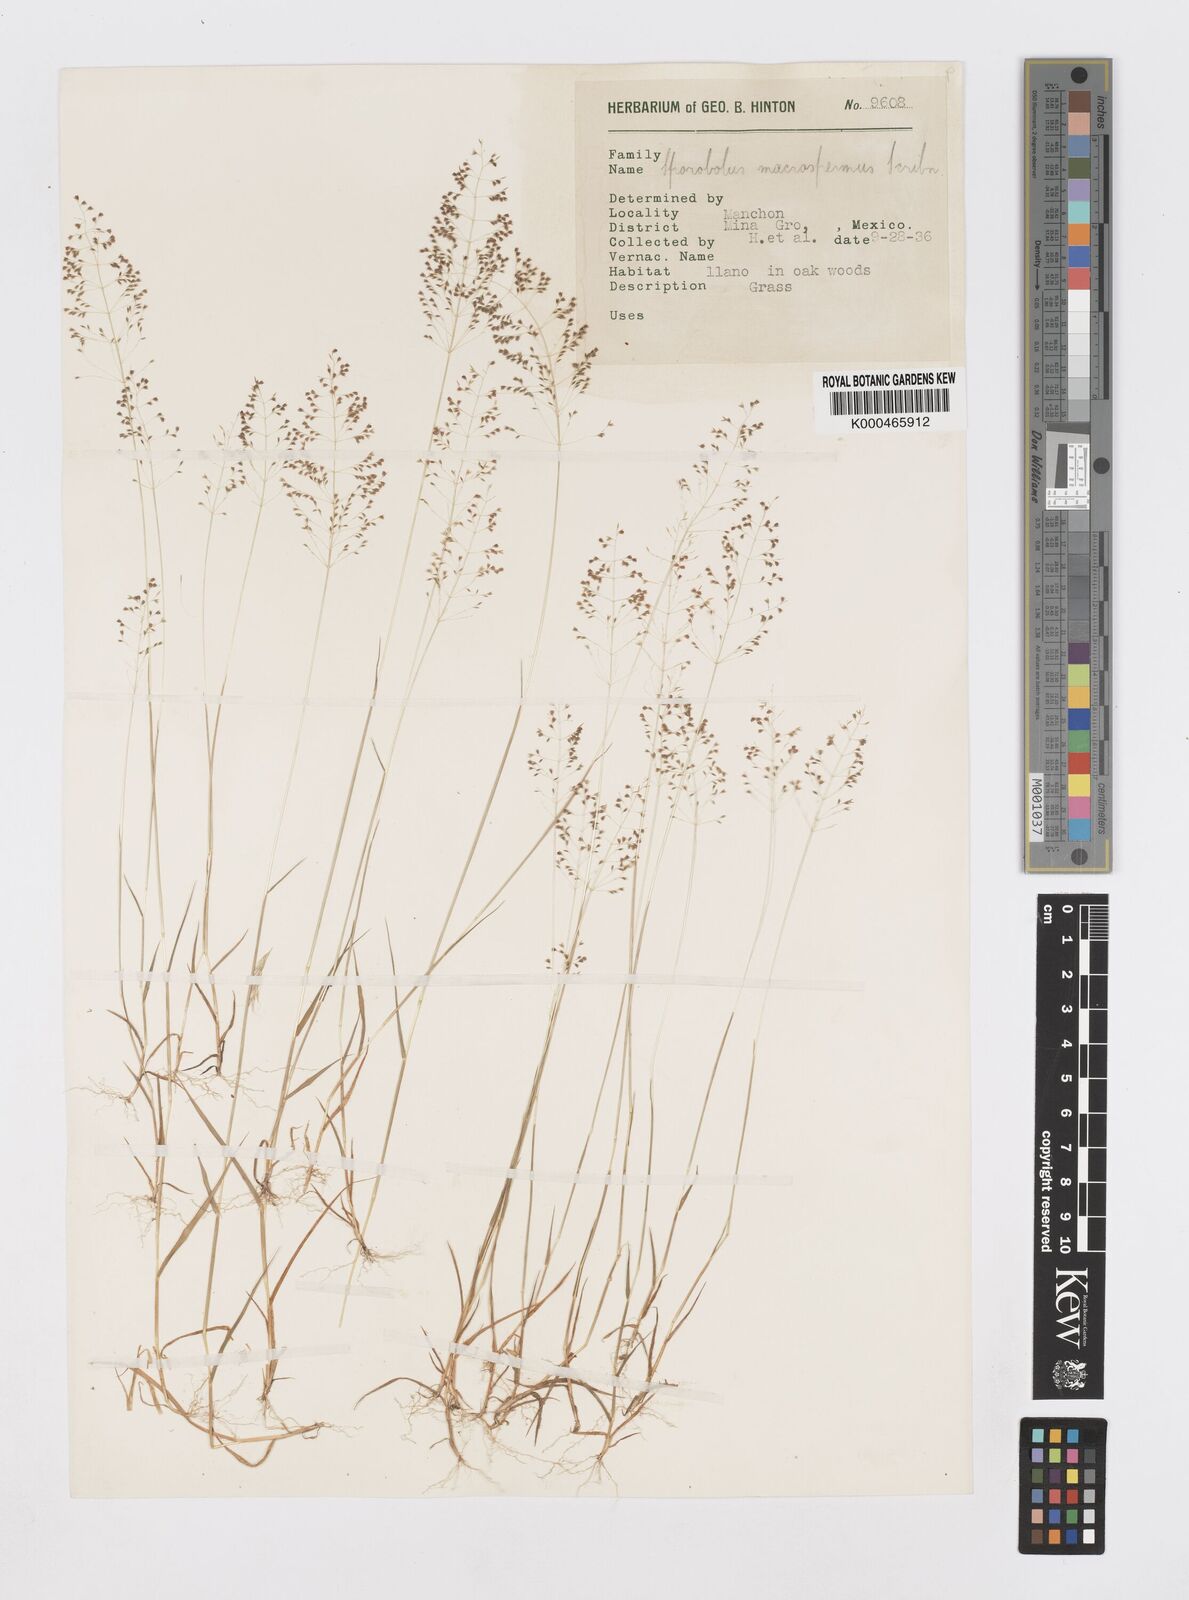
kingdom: Plantae
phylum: Tracheophyta
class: Liliopsida
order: Poales
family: Poaceae
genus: Sporobolus
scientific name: Sporobolus paniculatus
